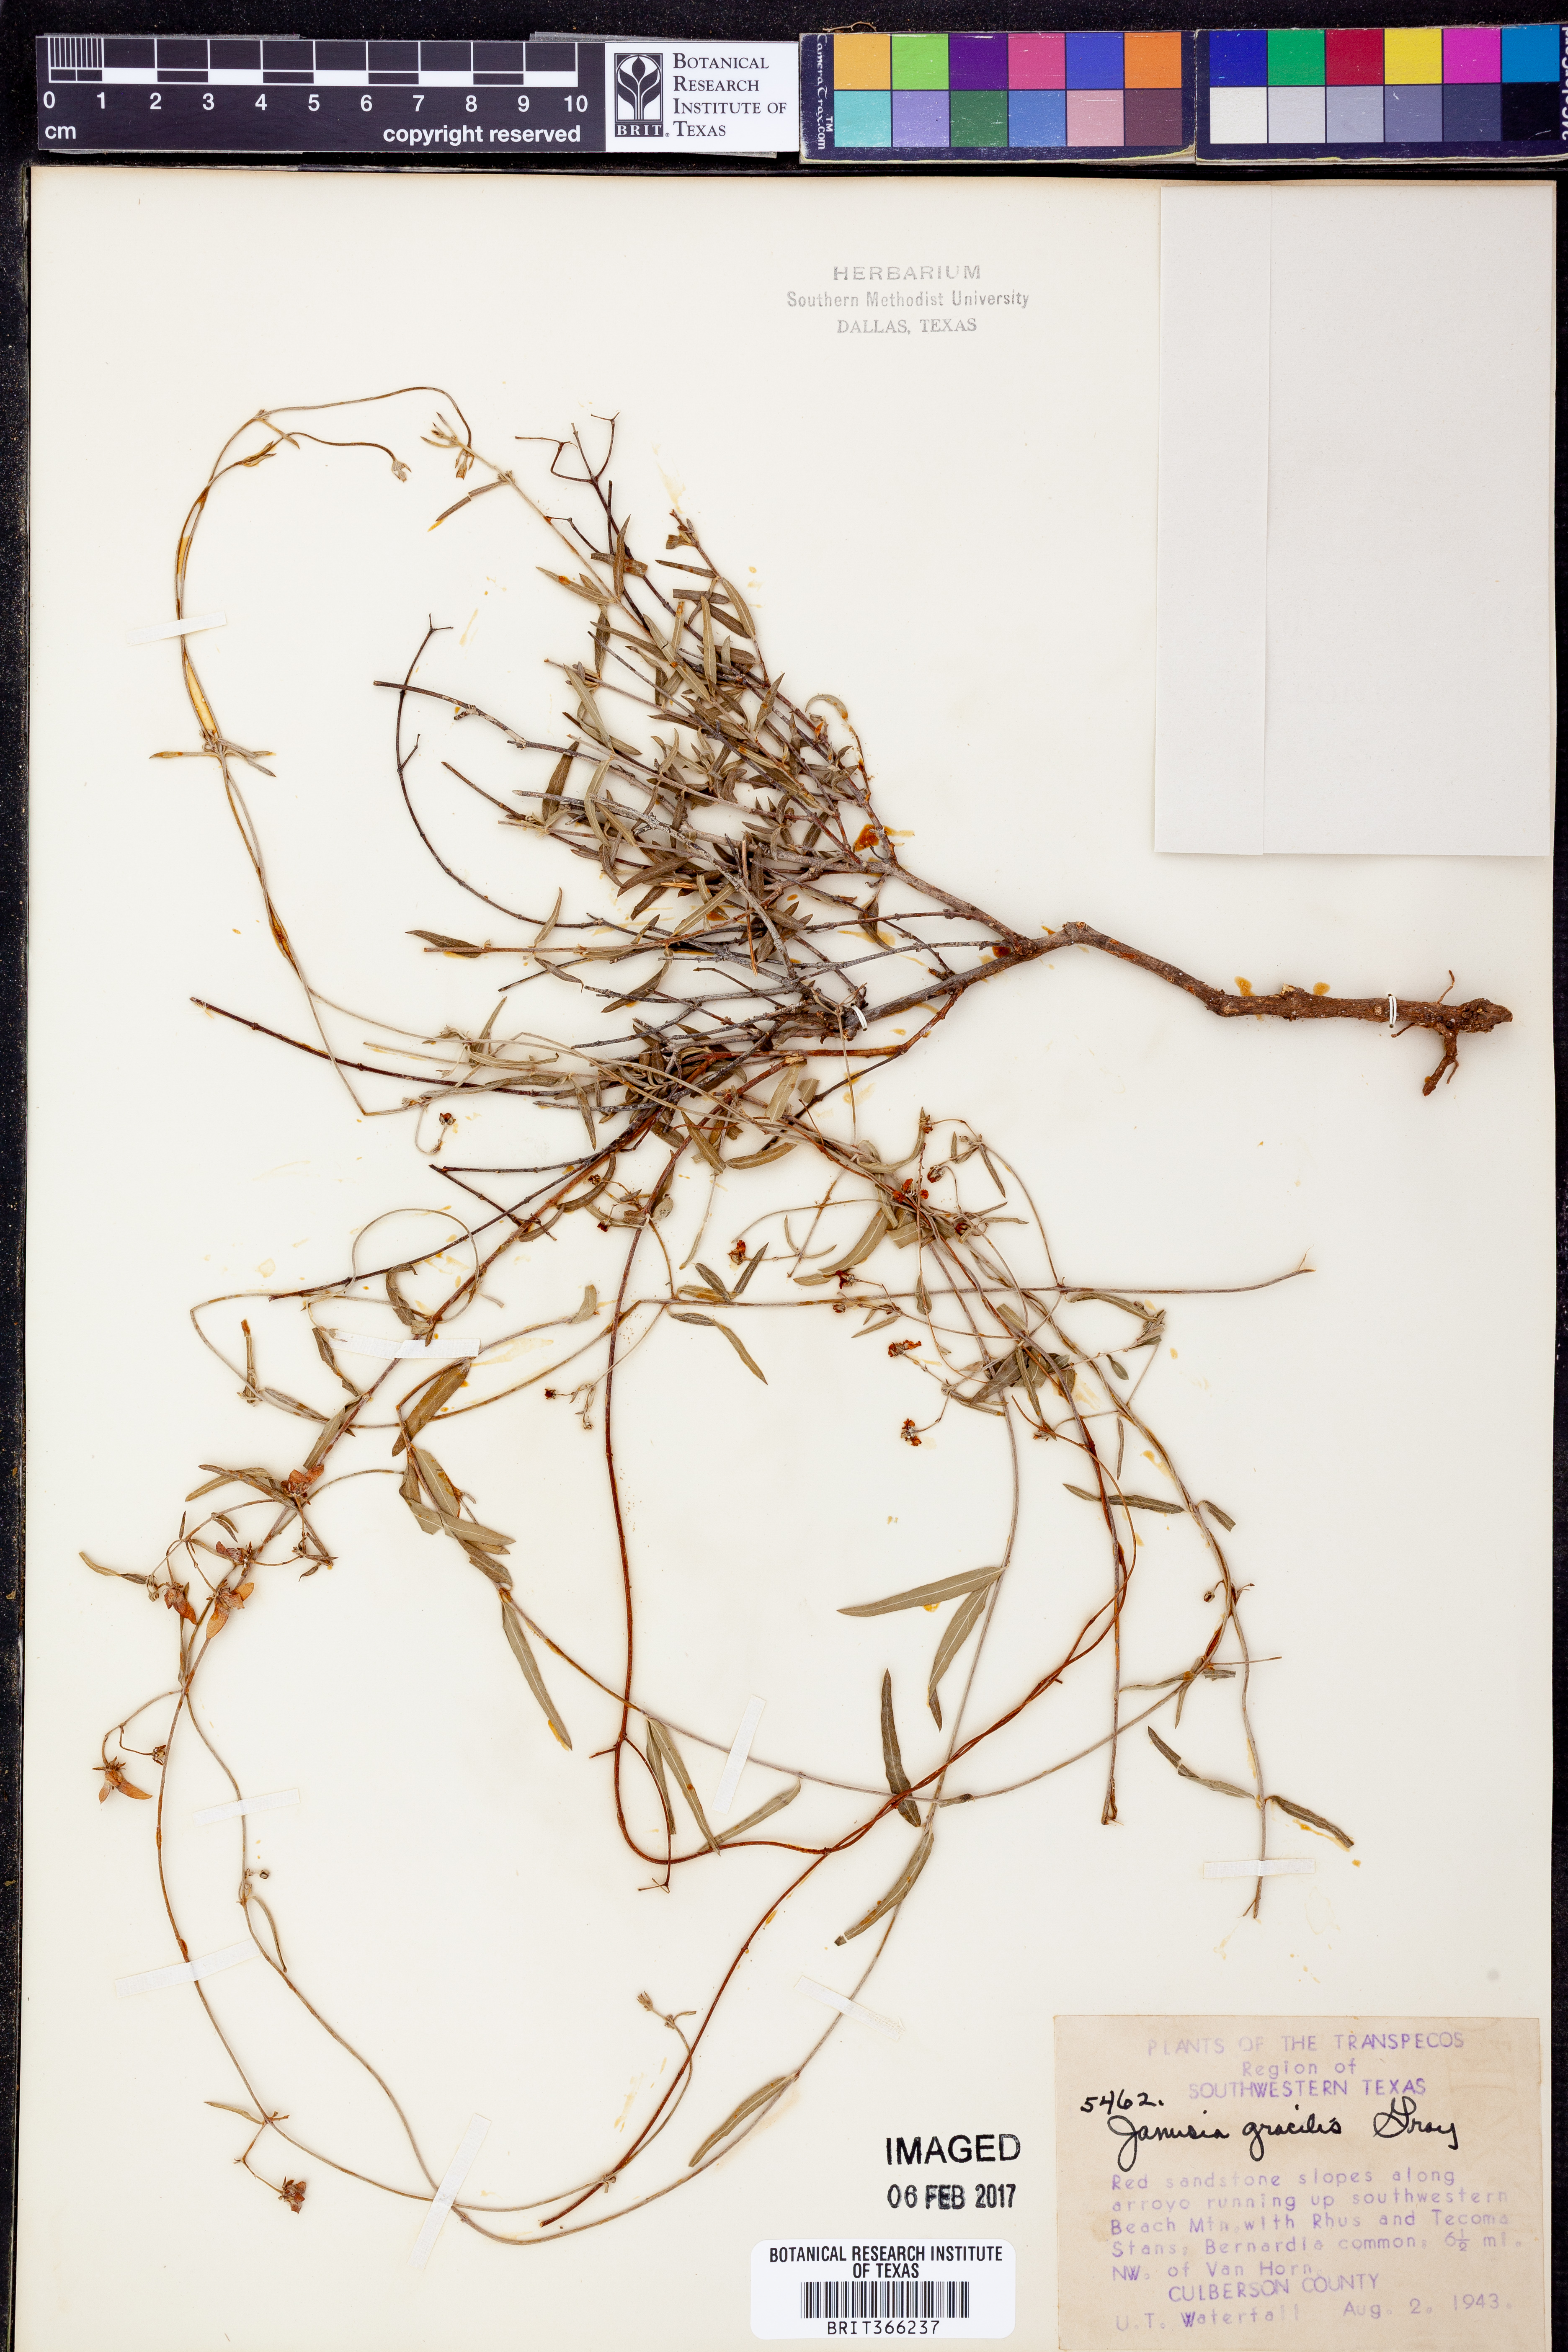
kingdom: Plantae
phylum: Tracheophyta
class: Magnoliopsida
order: Malpighiales
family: Malpighiaceae
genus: Cottsia
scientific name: Cottsia gracilis
